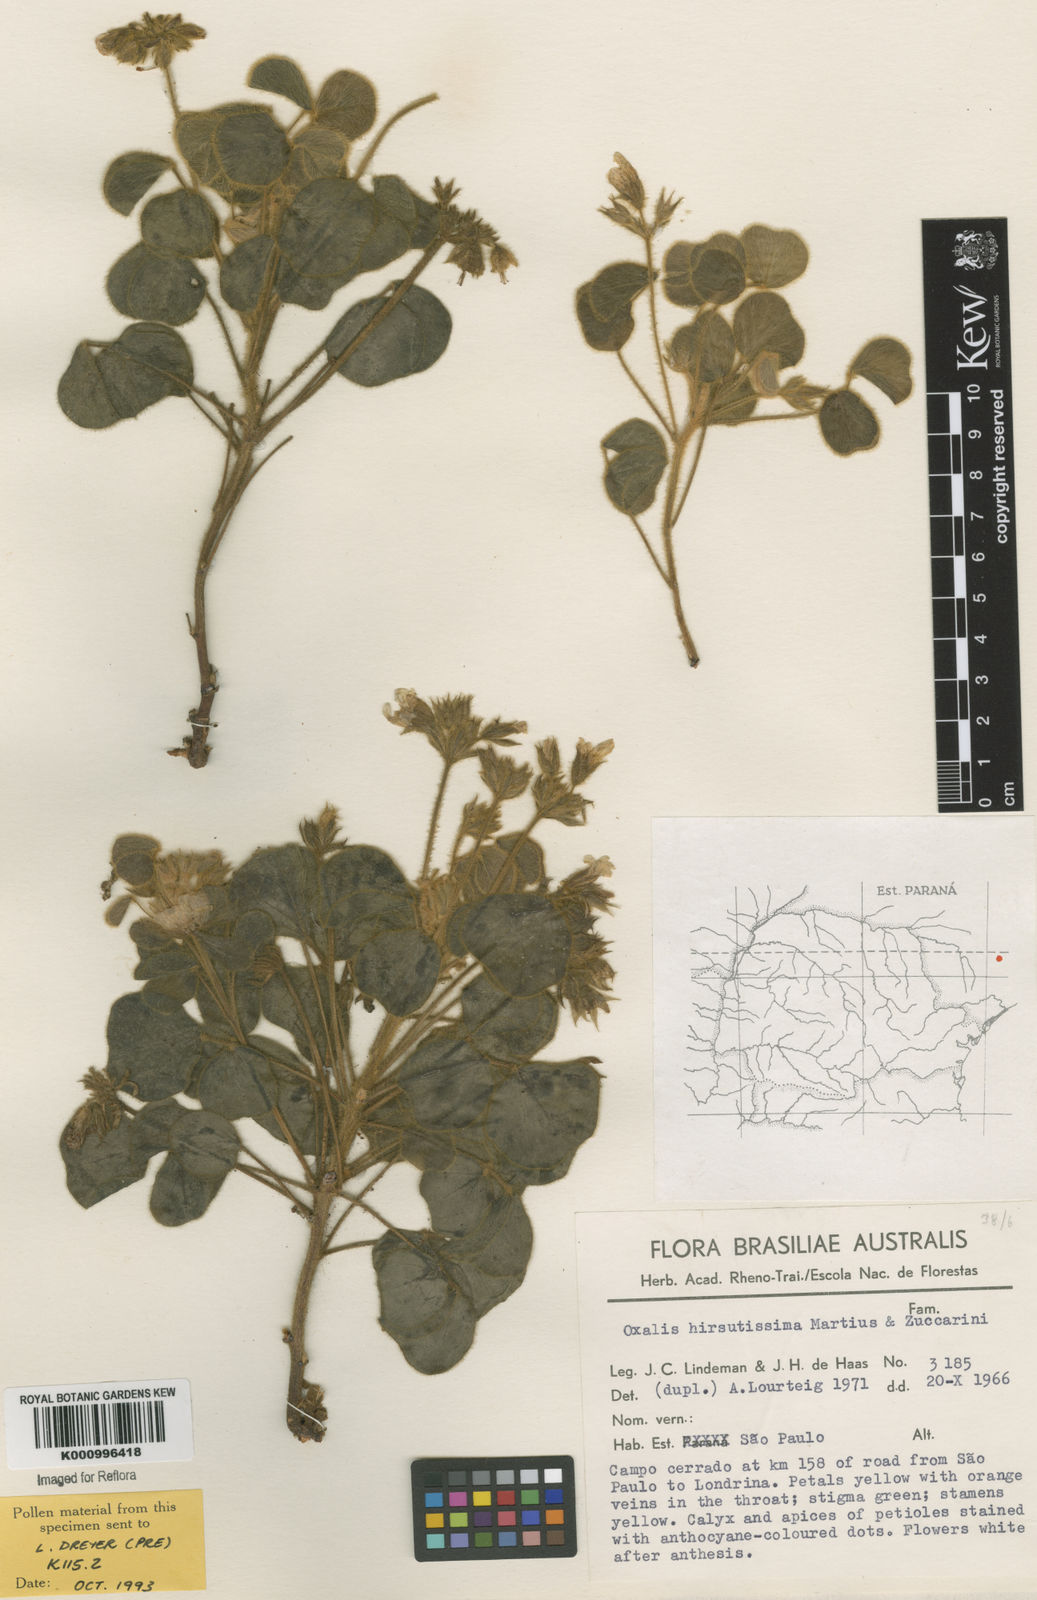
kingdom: Plantae
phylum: Tracheophyta
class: Magnoliopsida
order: Oxalidales
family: Oxalidaceae
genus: Oxalis
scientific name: Oxalis hirsutissima
